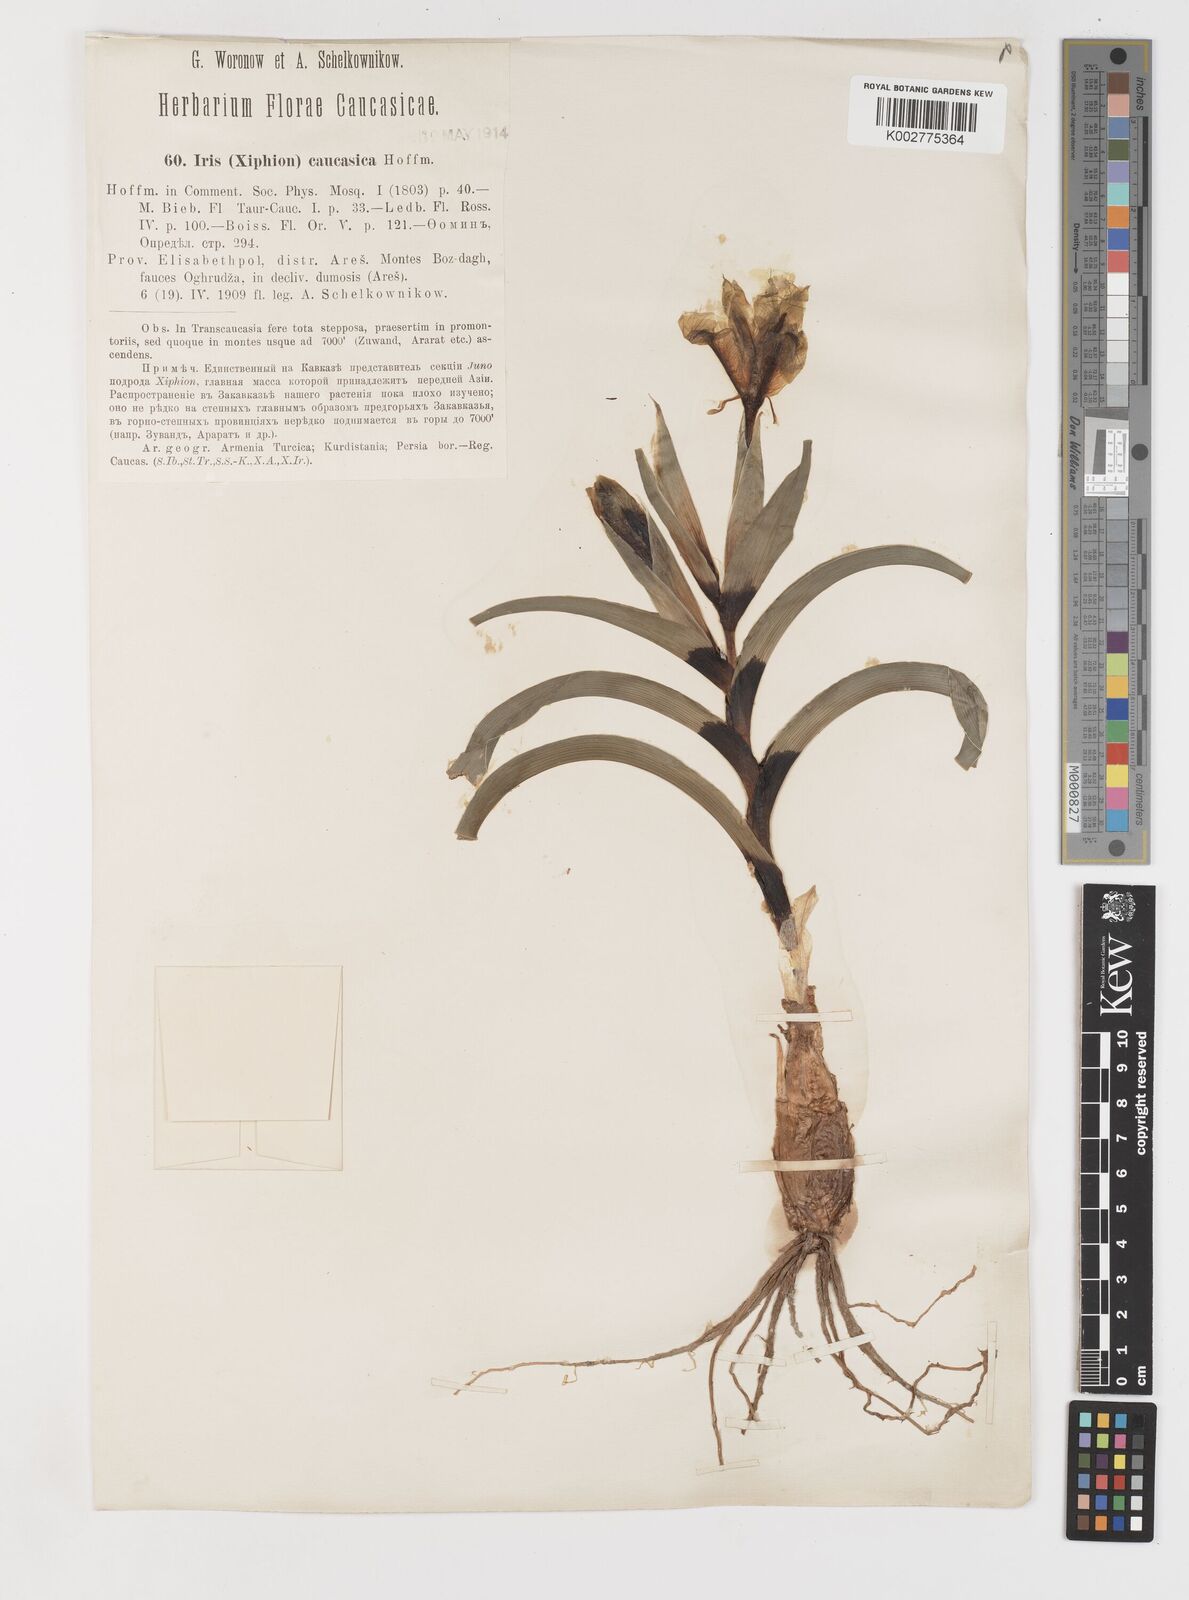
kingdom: Plantae
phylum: Tracheophyta
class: Liliopsida
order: Asparagales
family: Iridaceae
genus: Iris
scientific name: Iris caucasica
